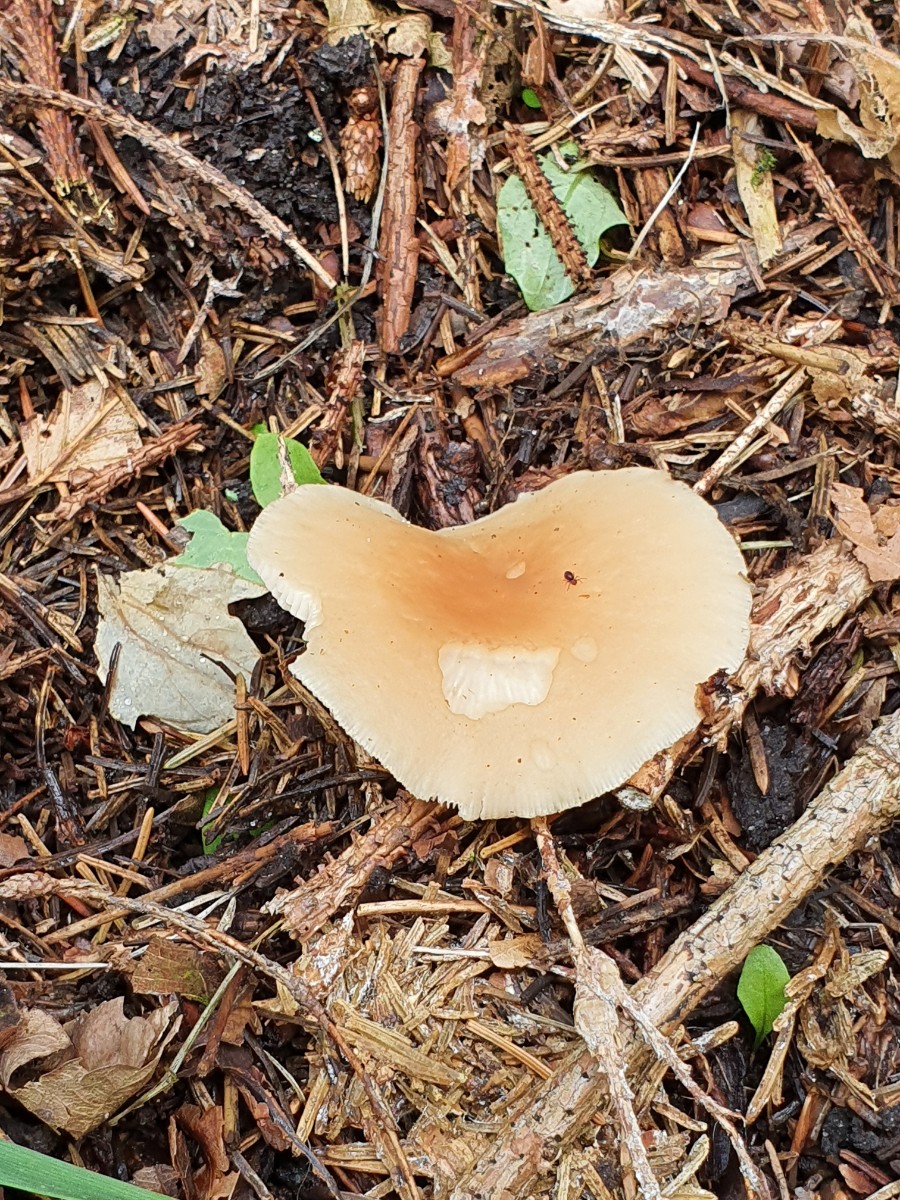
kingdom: Fungi
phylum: Basidiomycota
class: Agaricomycetes
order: Agaricales
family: Omphalotaceae
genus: Gymnopus
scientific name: Gymnopus dryophilus
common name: løv-fladhat
